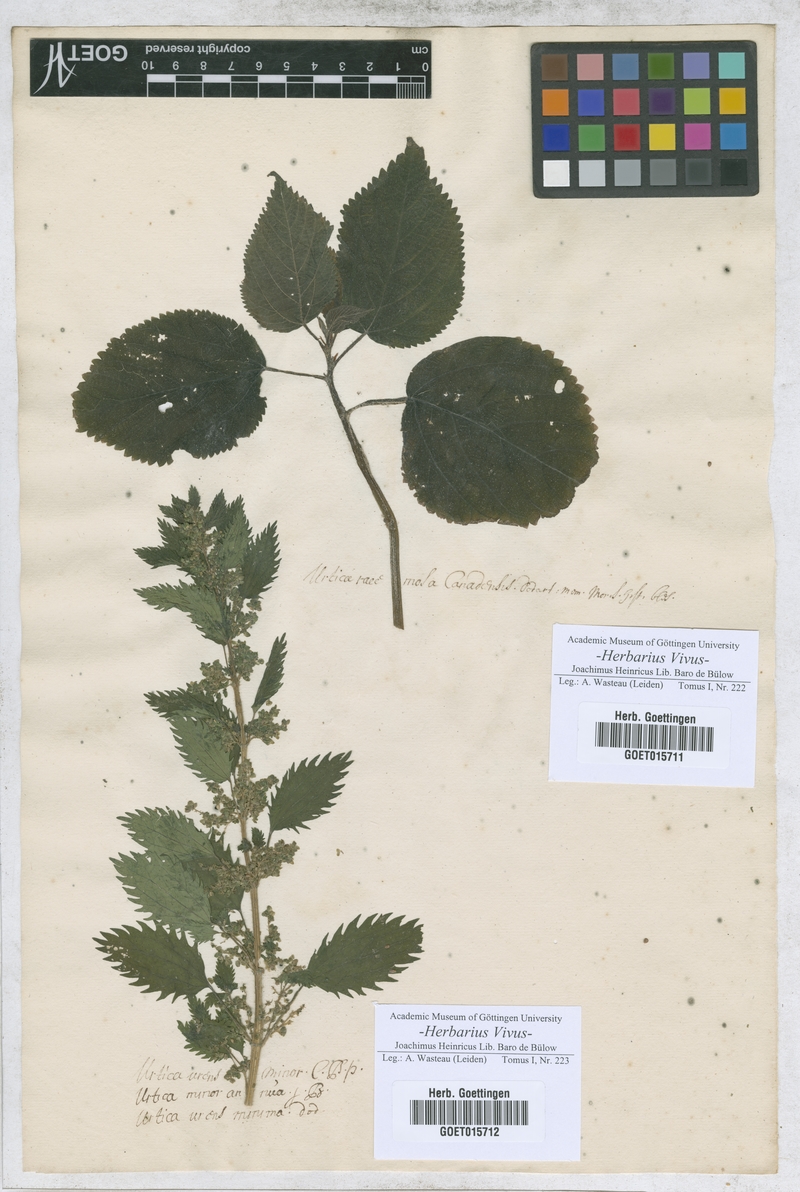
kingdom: Plantae
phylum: Tracheophyta
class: Magnoliopsida
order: Rosales
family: Urticaceae
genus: Laportea
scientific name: Laportea canadensis
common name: Canada nettle
